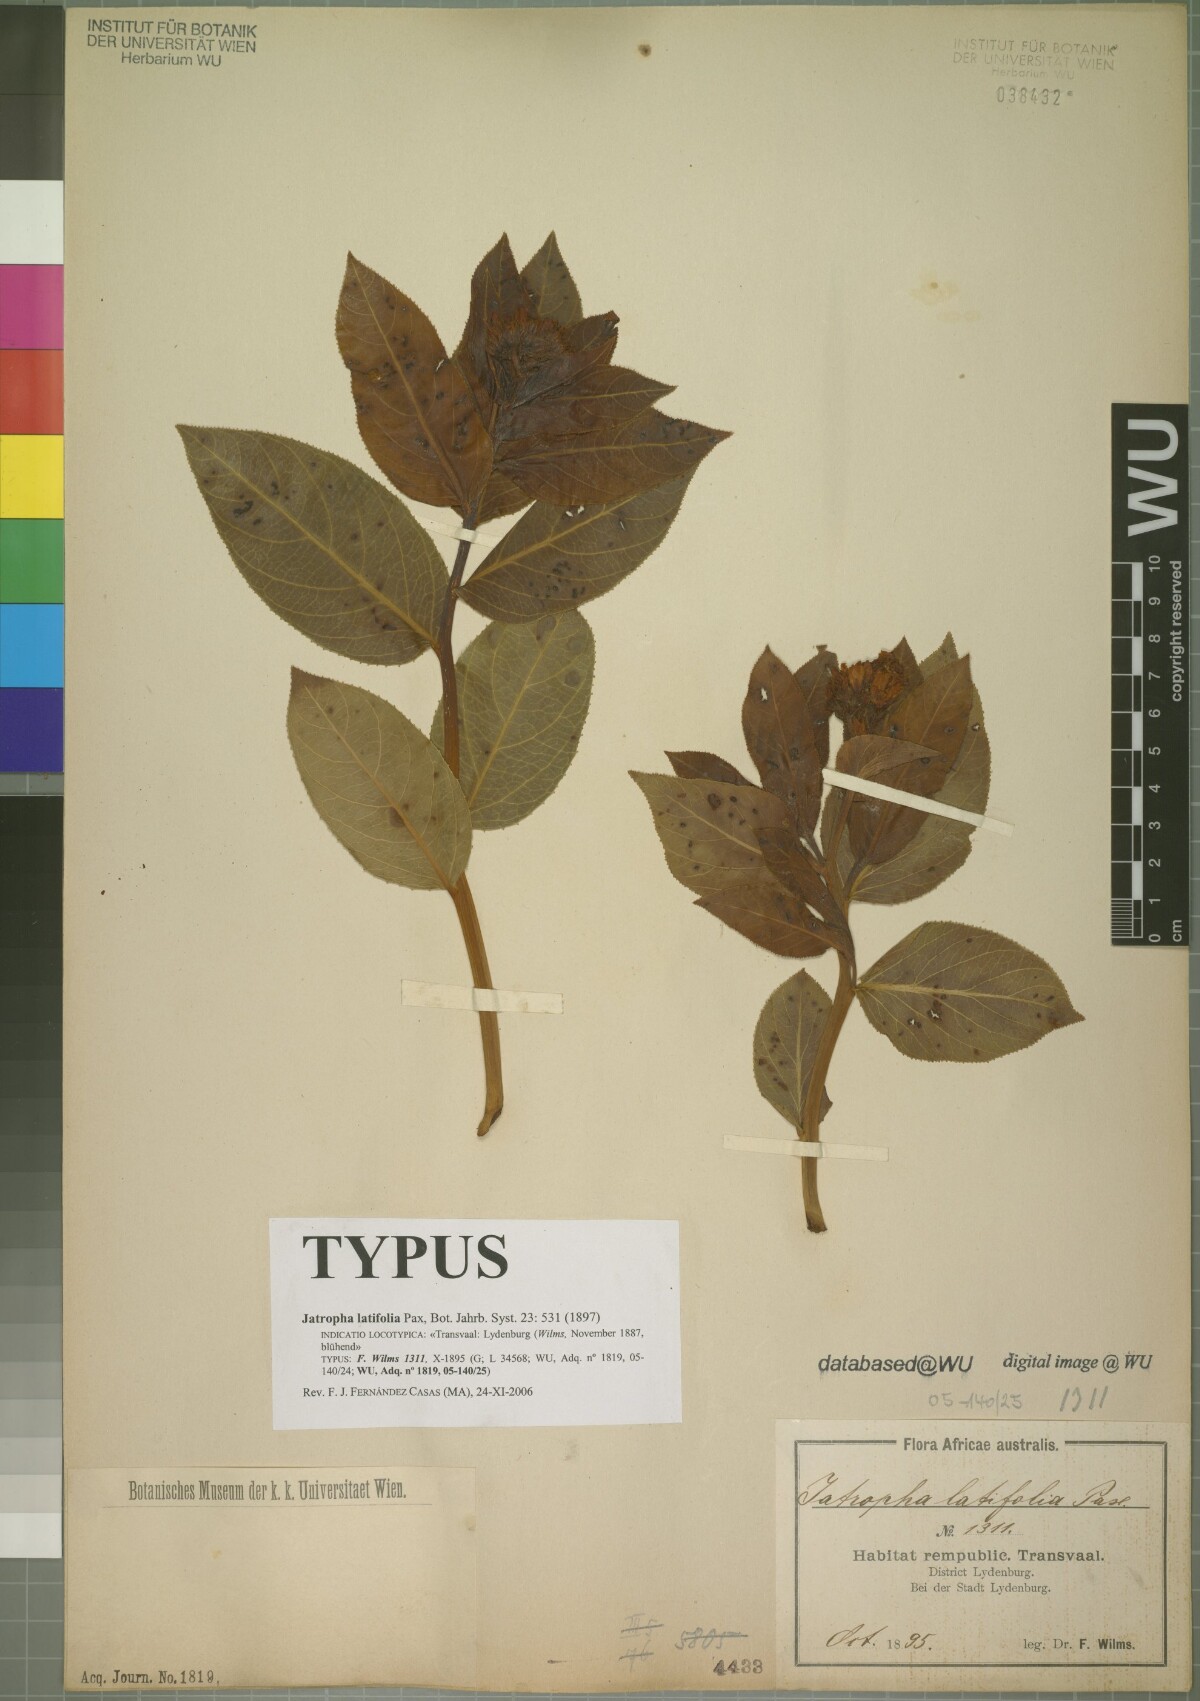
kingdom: Plantae
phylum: Tracheophyta
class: Magnoliopsida
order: Malpighiales
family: Euphorbiaceae
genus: Jatropha
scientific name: Jatropha latifolia
